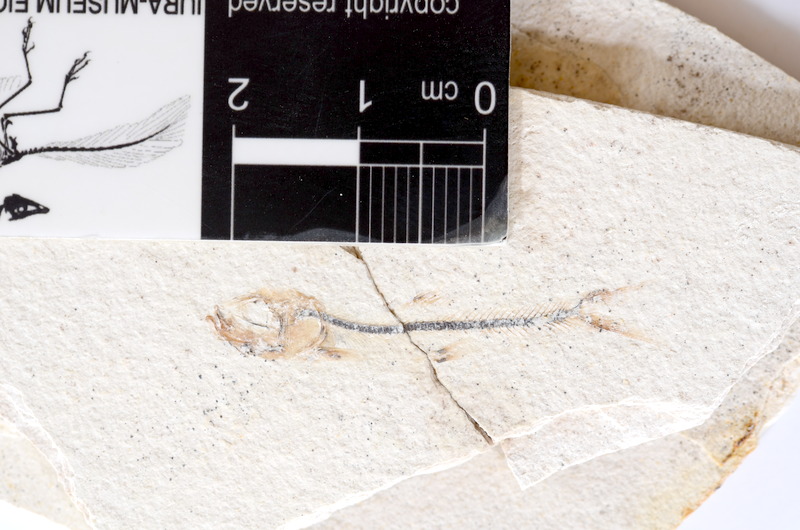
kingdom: Animalia
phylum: Chordata
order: Salmoniformes
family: Orthogonikleithridae
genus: Orthogonikleithrus
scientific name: Orthogonikleithrus hoelli
